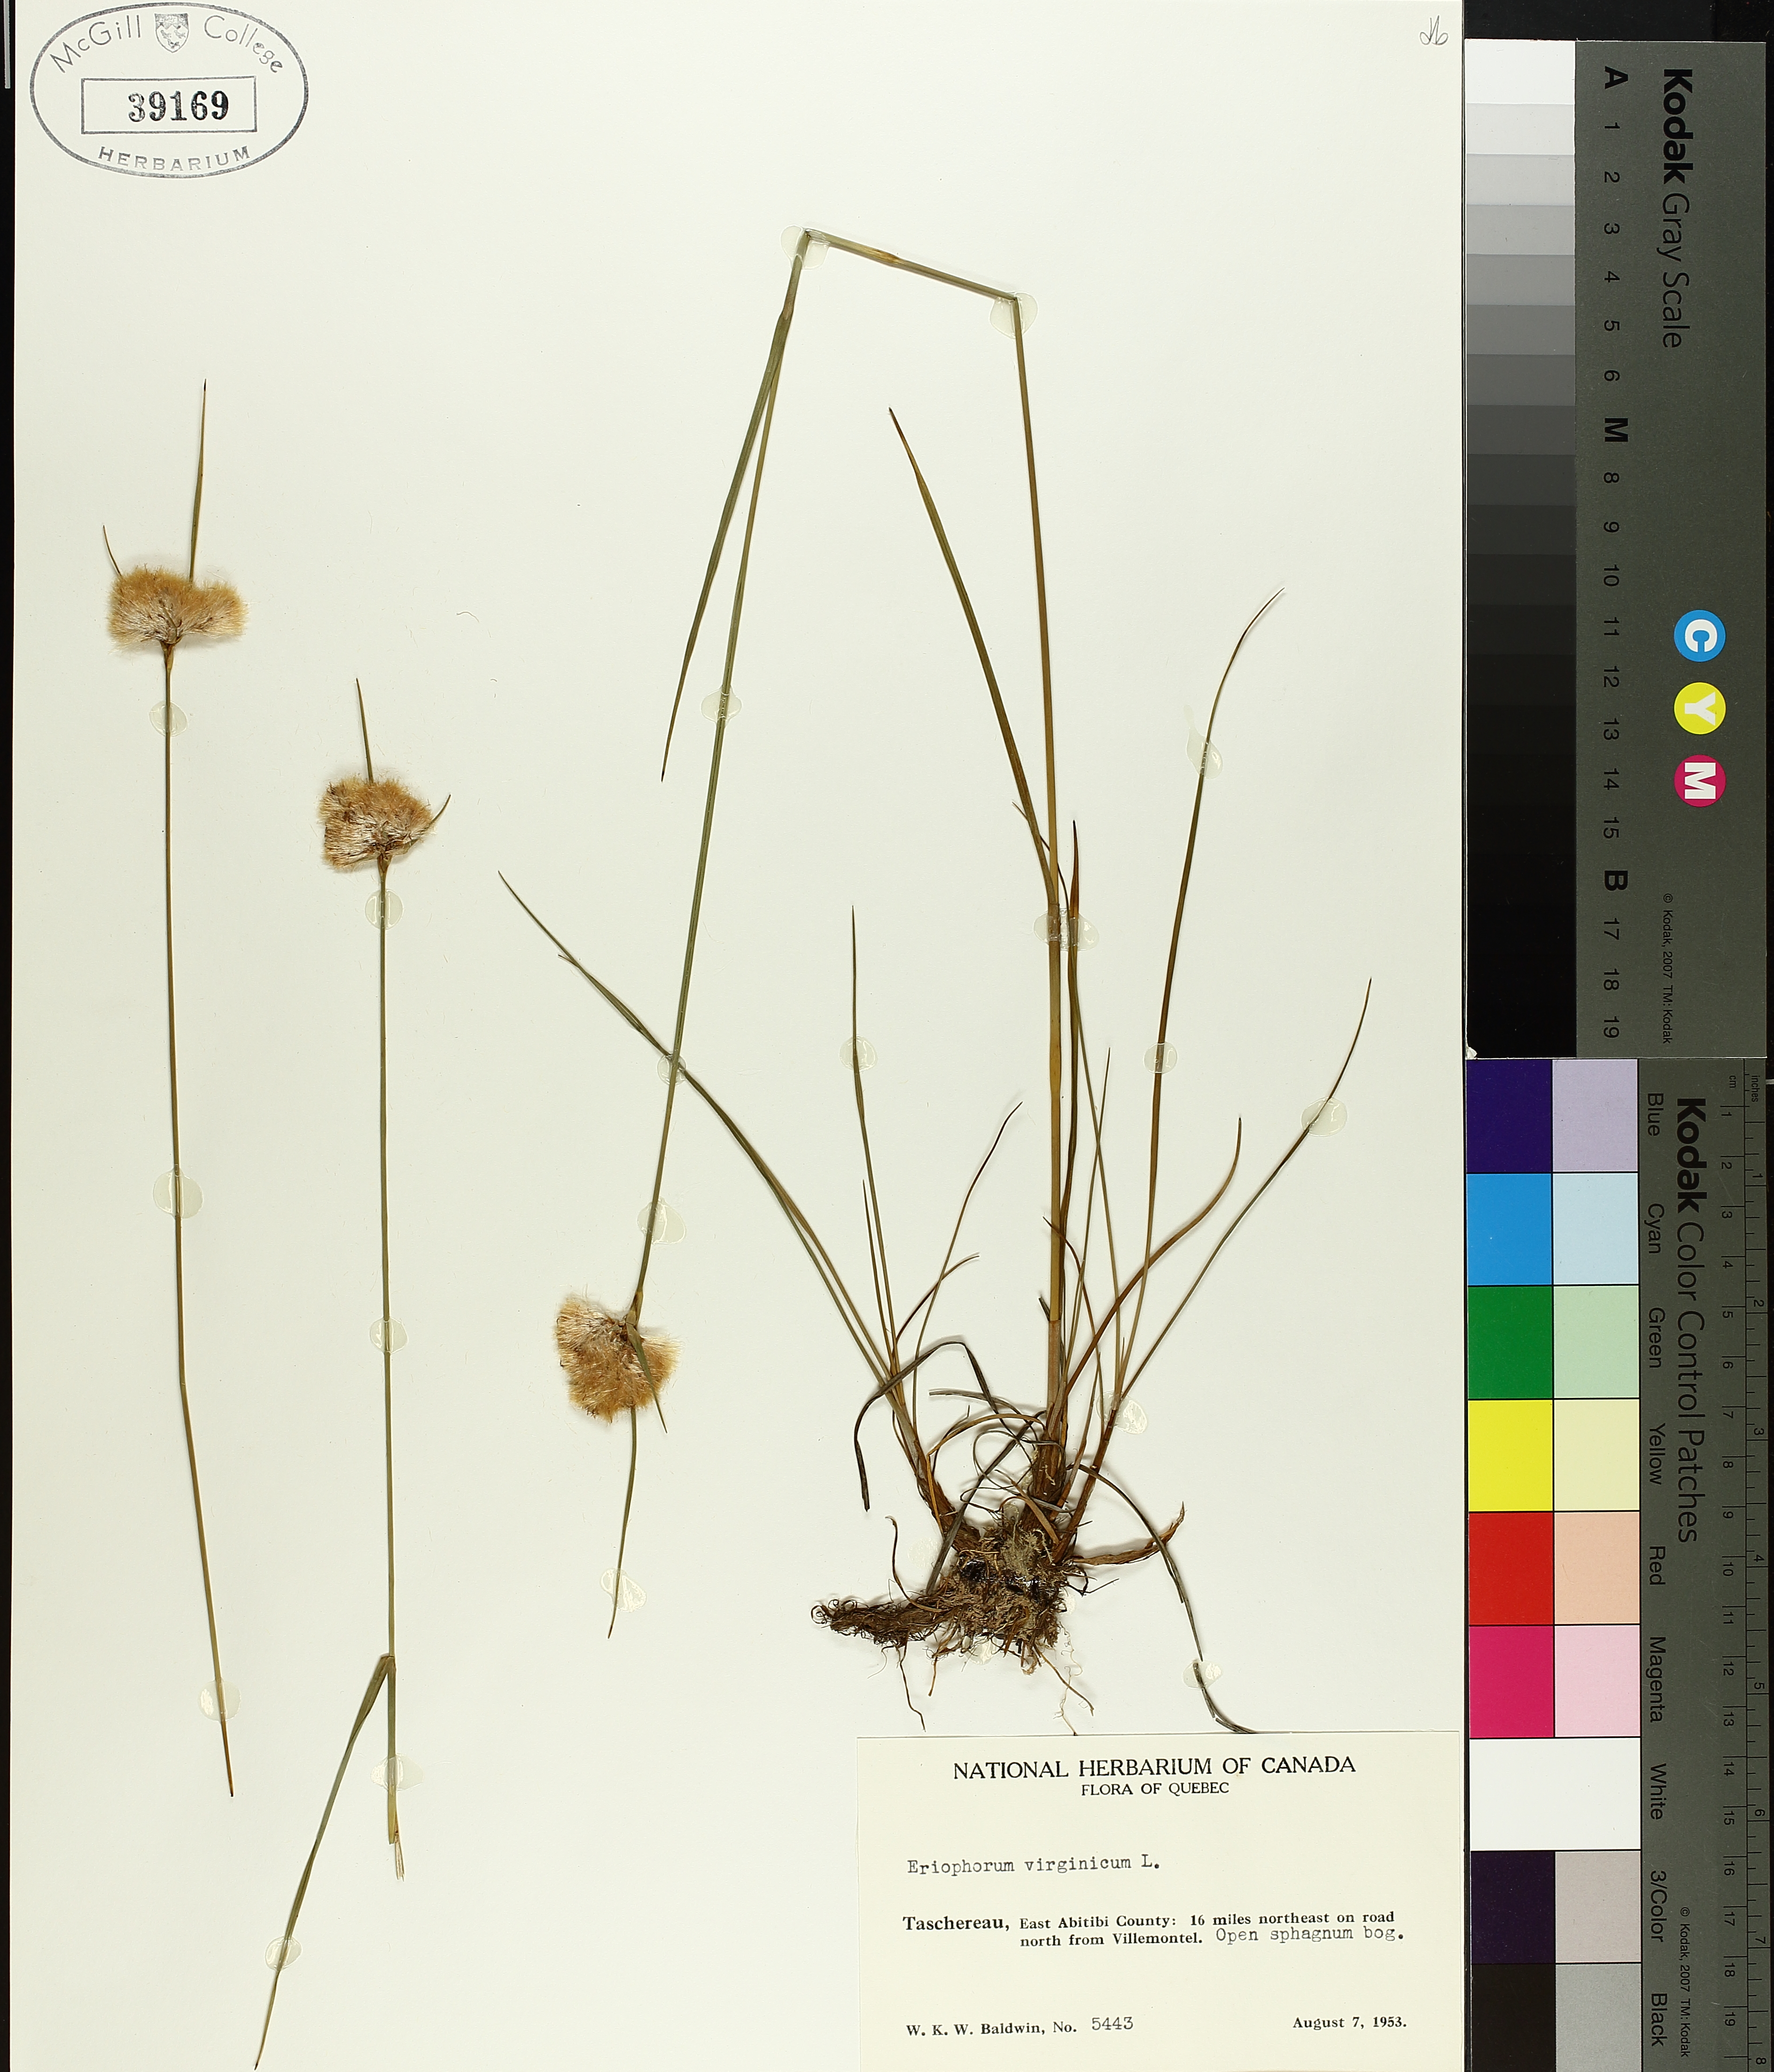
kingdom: Plantae
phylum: Tracheophyta
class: Liliopsida
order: Poales
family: Cyperaceae
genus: Eriophorum
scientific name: Eriophorum virginicum
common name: Tawny cottongrass
